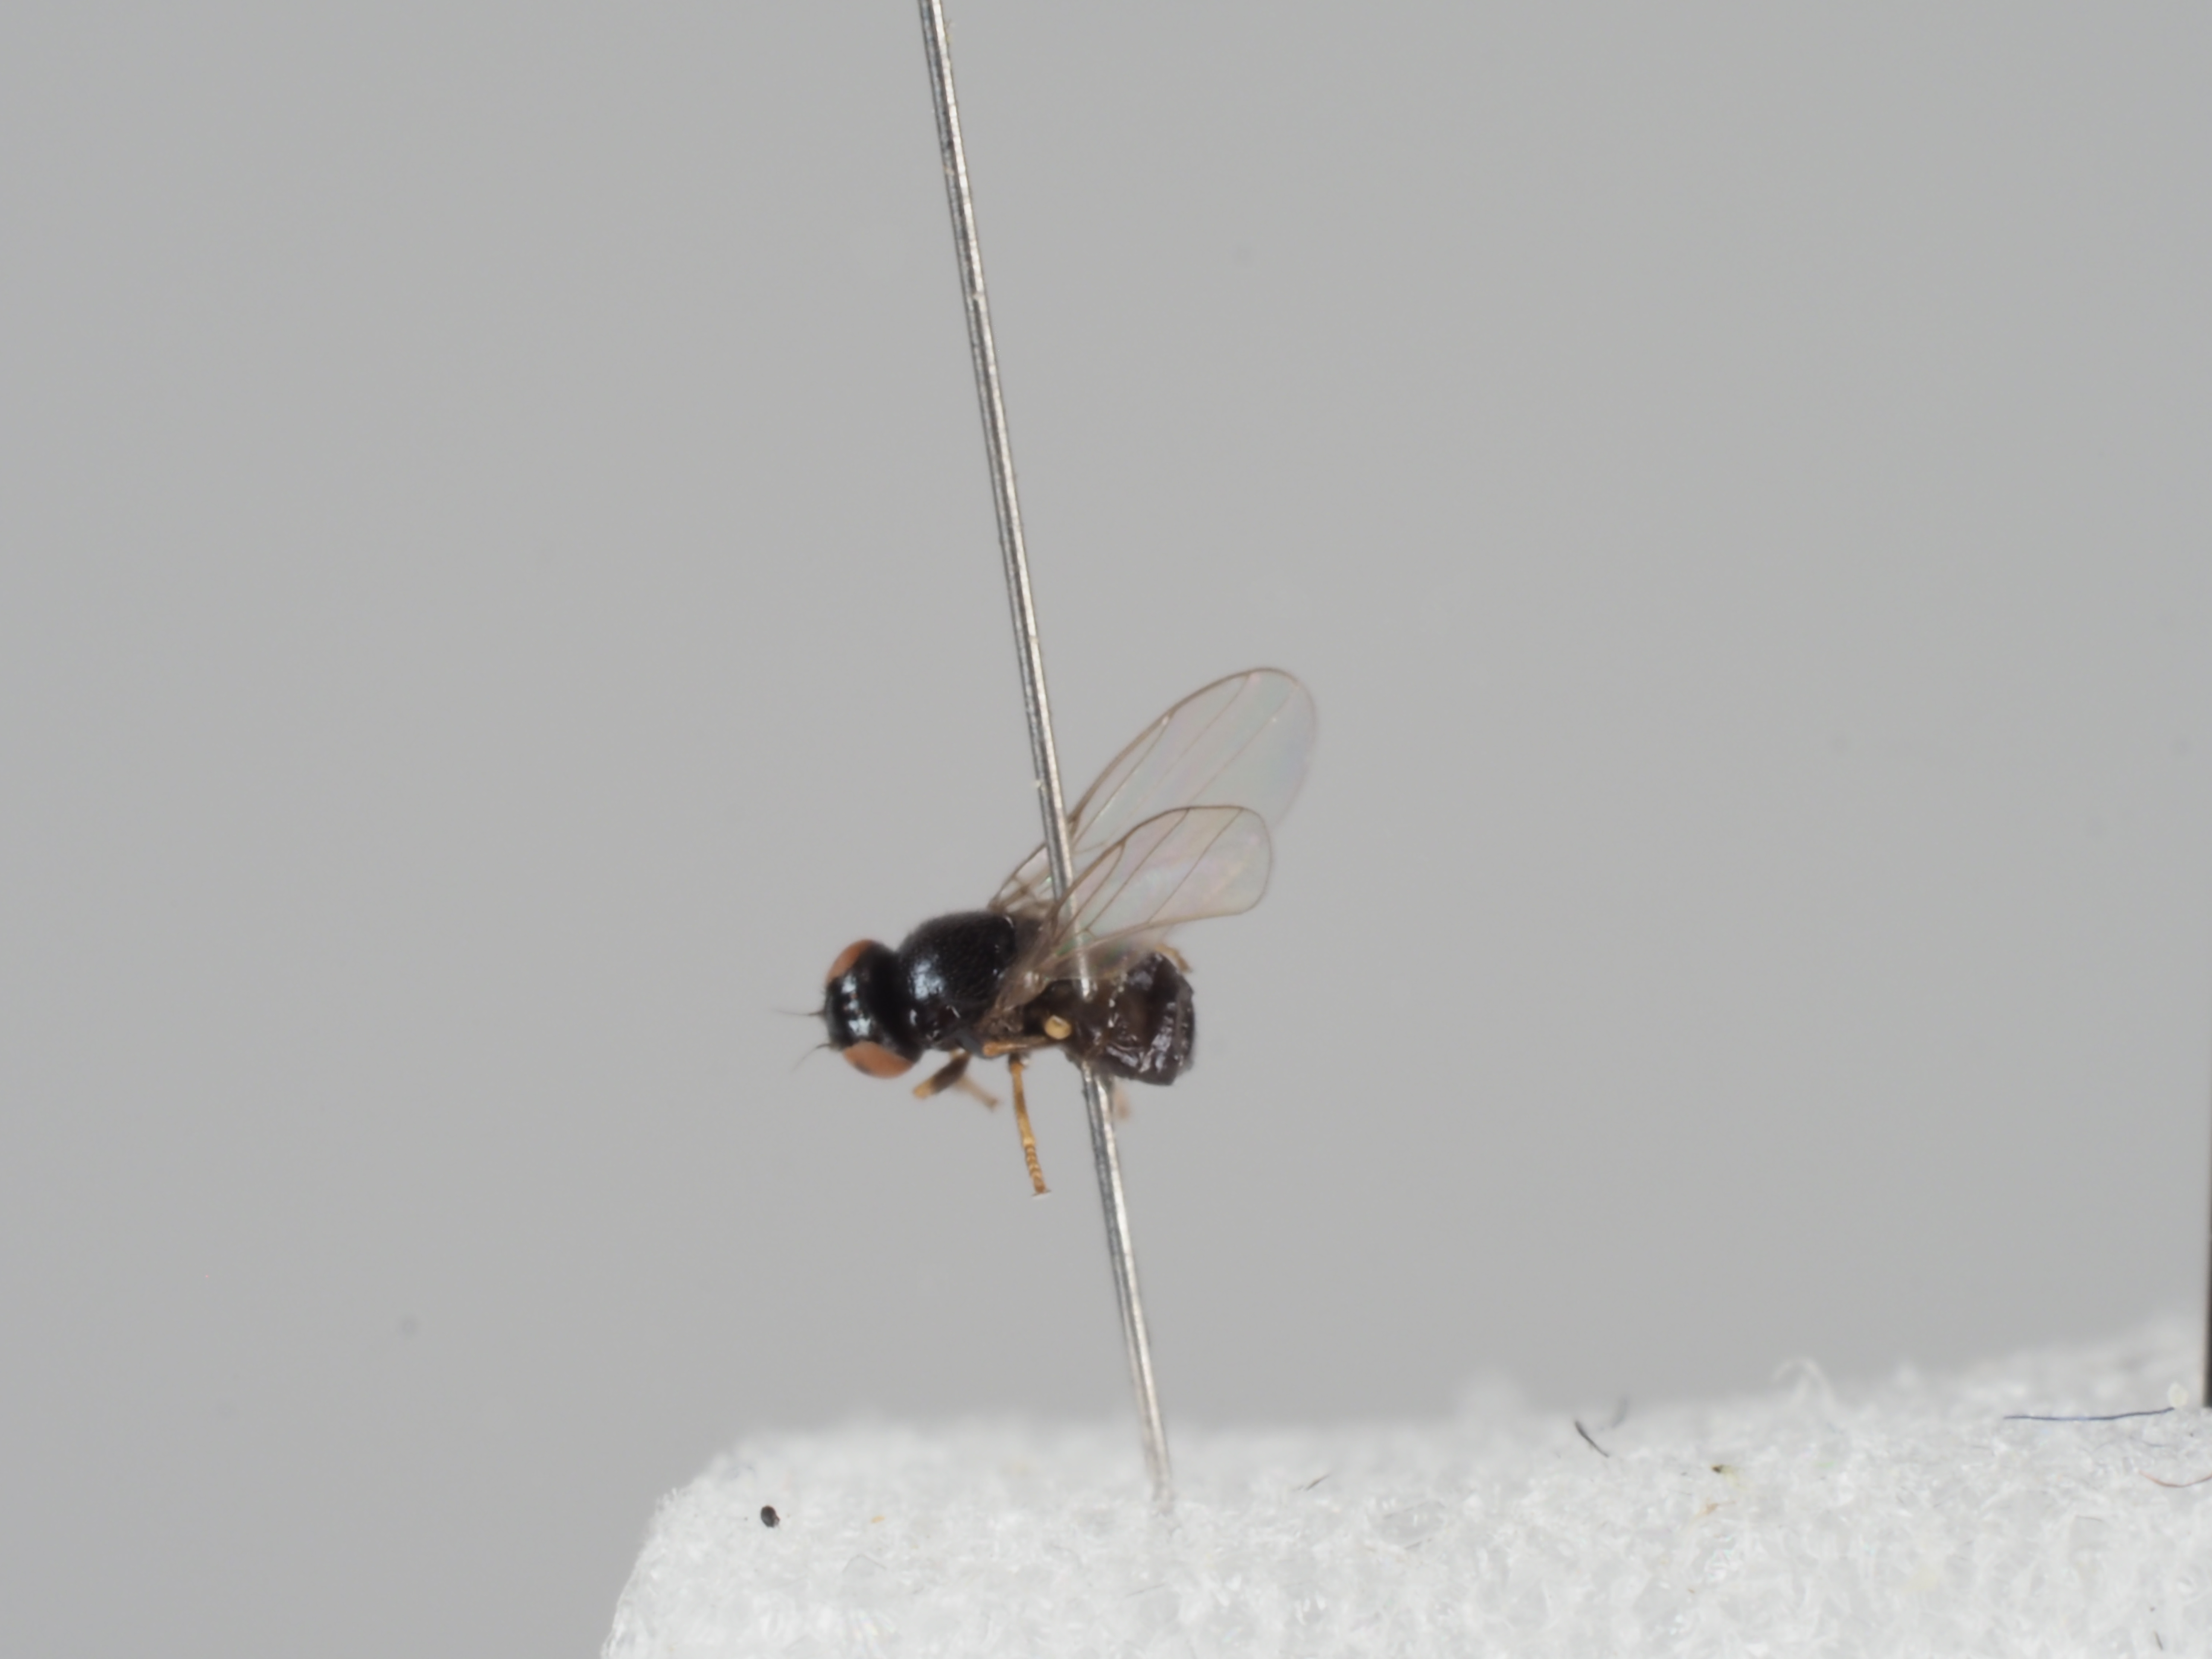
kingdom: Animalia
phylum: Arthropoda
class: Insecta
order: Diptera
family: Chloropidae
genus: Hapleginella
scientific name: Hapleginella laevifrons
